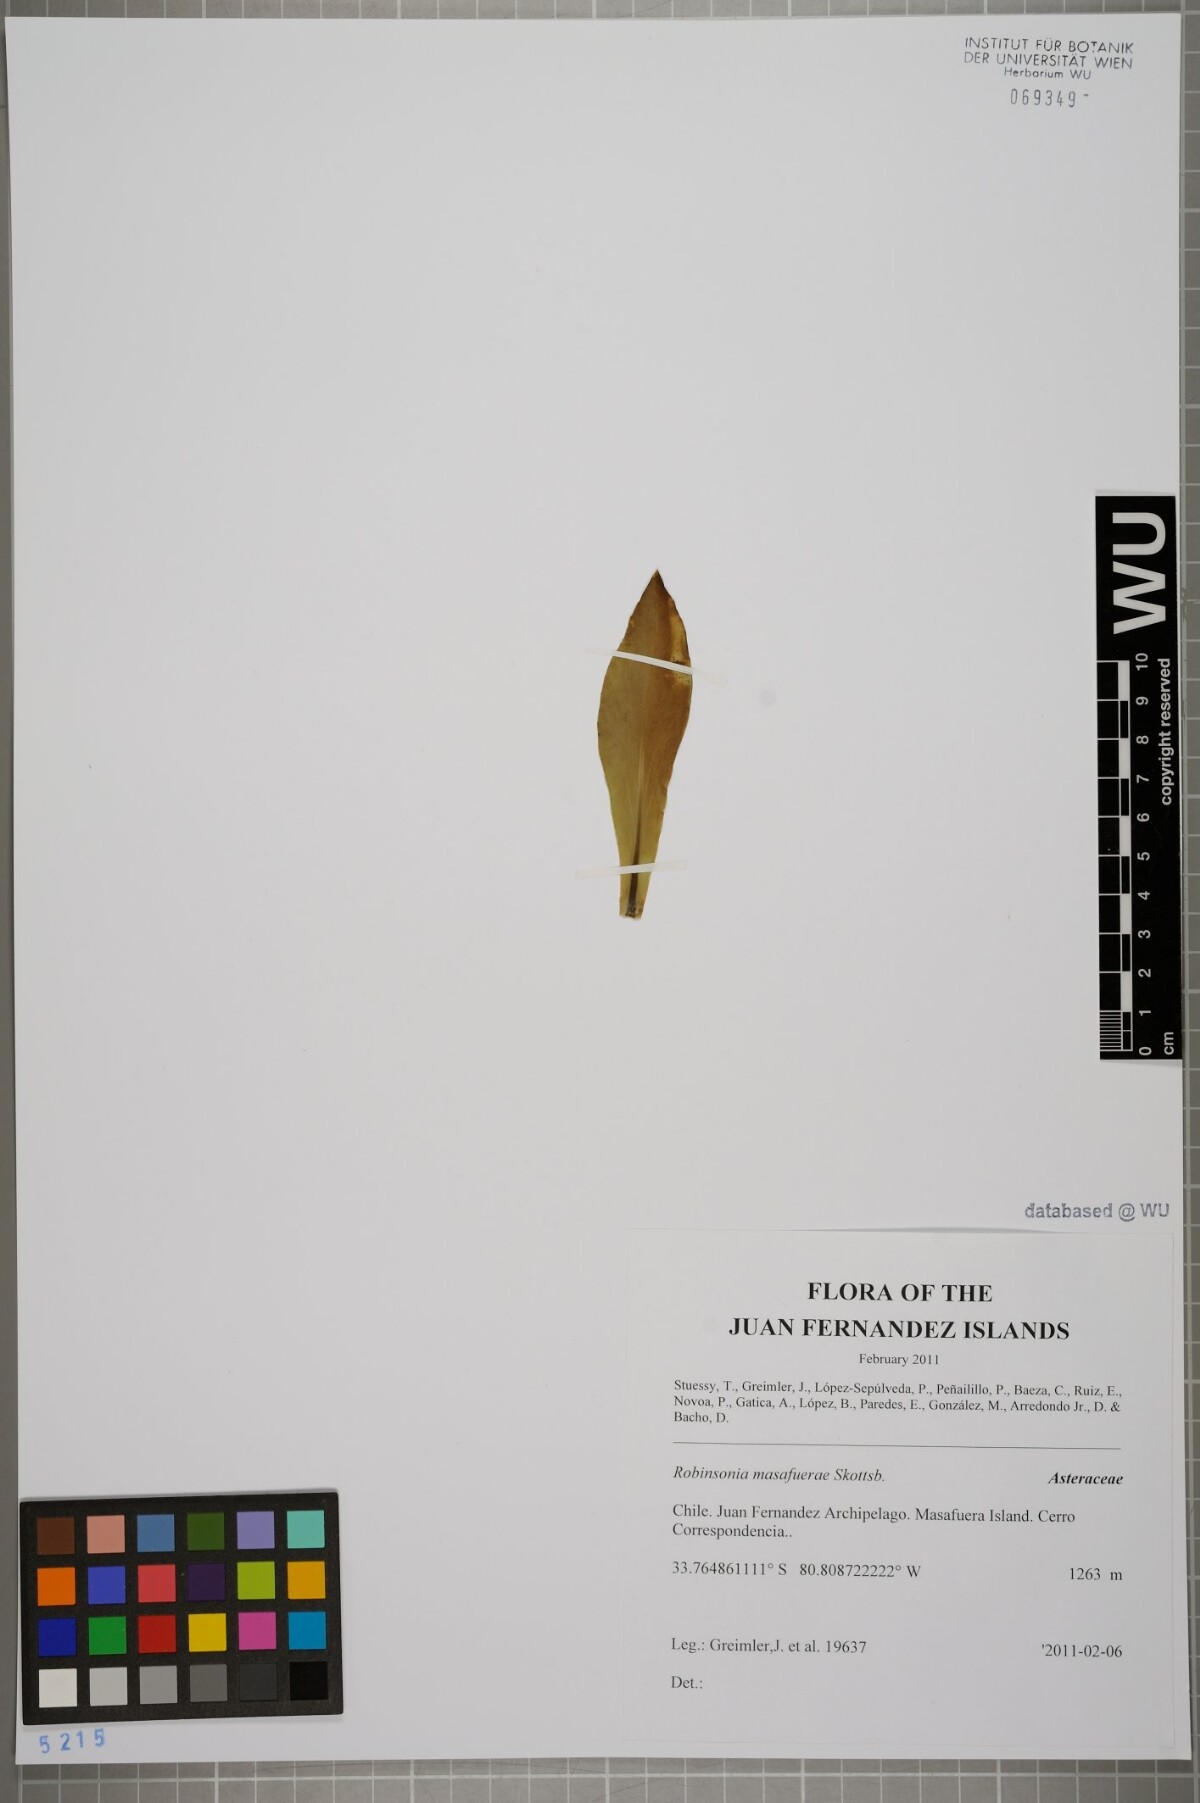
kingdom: Plantae
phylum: Tracheophyta
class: Magnoliopsida
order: Asterales
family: Asteraceae
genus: Robinsonia
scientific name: Robinsonia masafuerae
